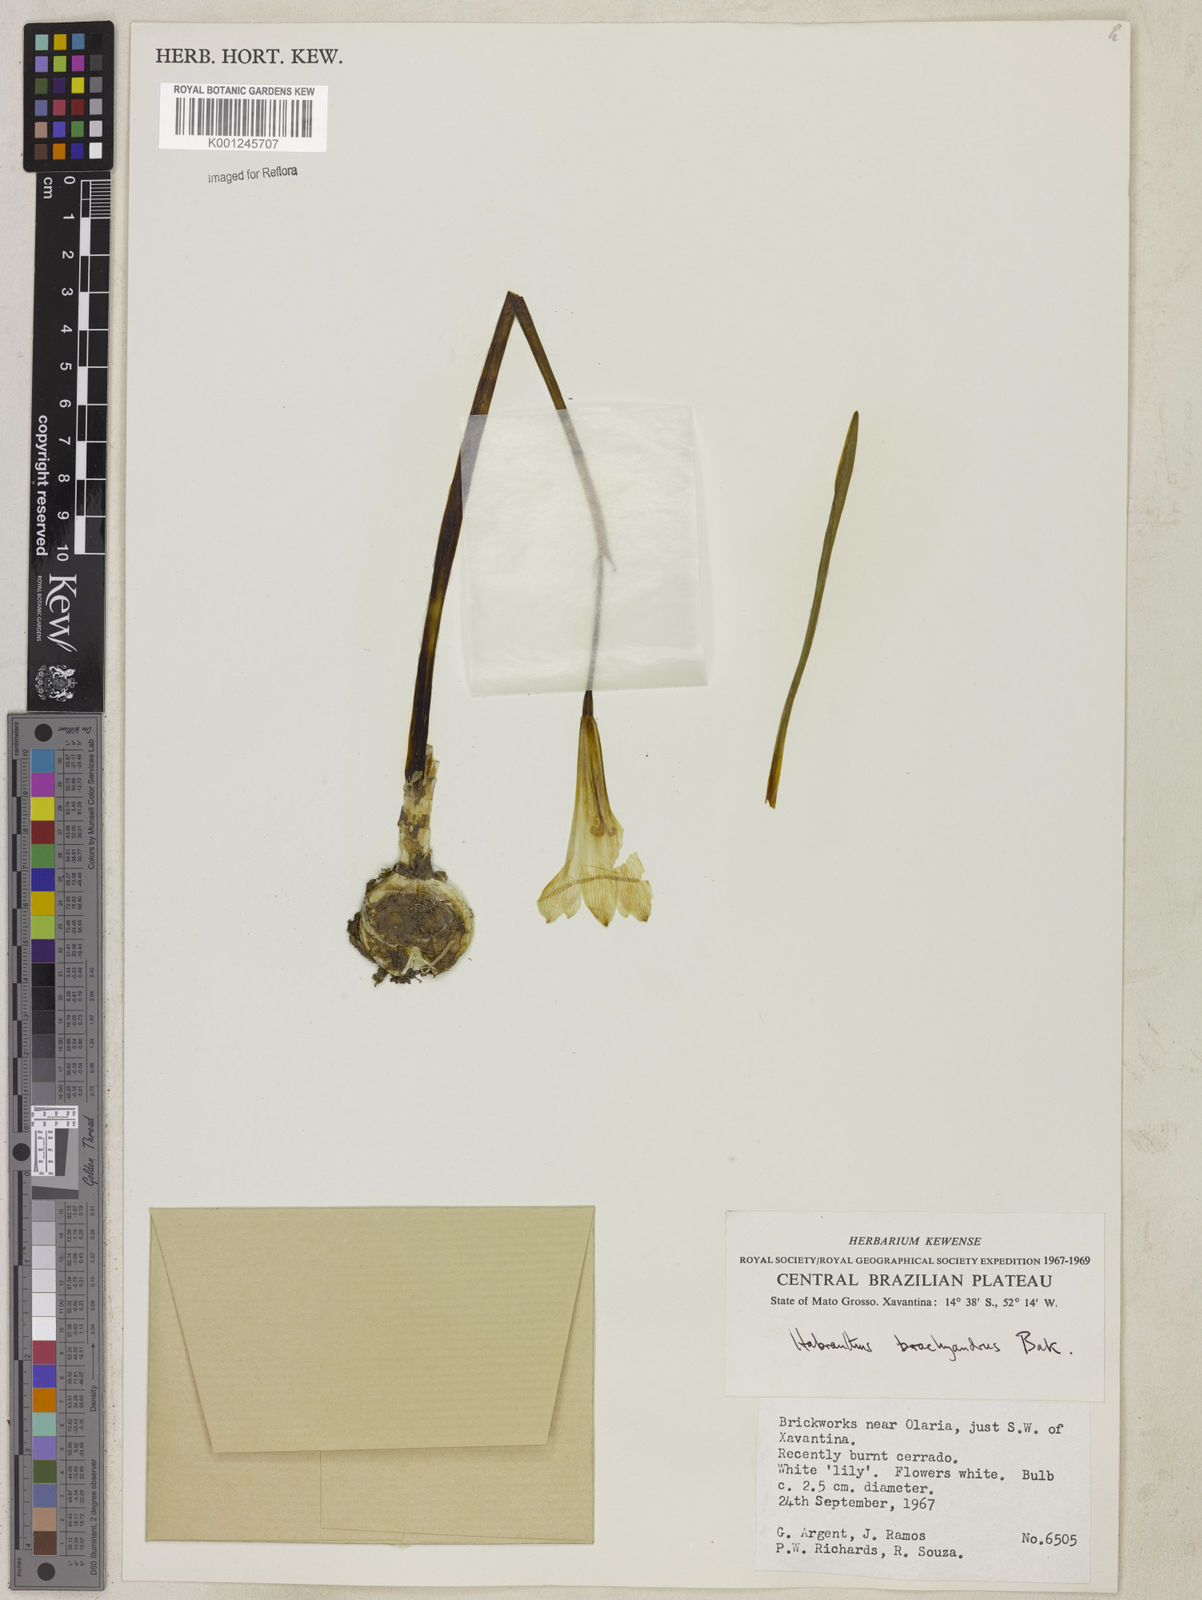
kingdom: Plantae
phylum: Tracheophyta
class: Liliopsida
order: Asparagales
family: Amaryllidaceae
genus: Zephyranthes
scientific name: Zephyranthes
